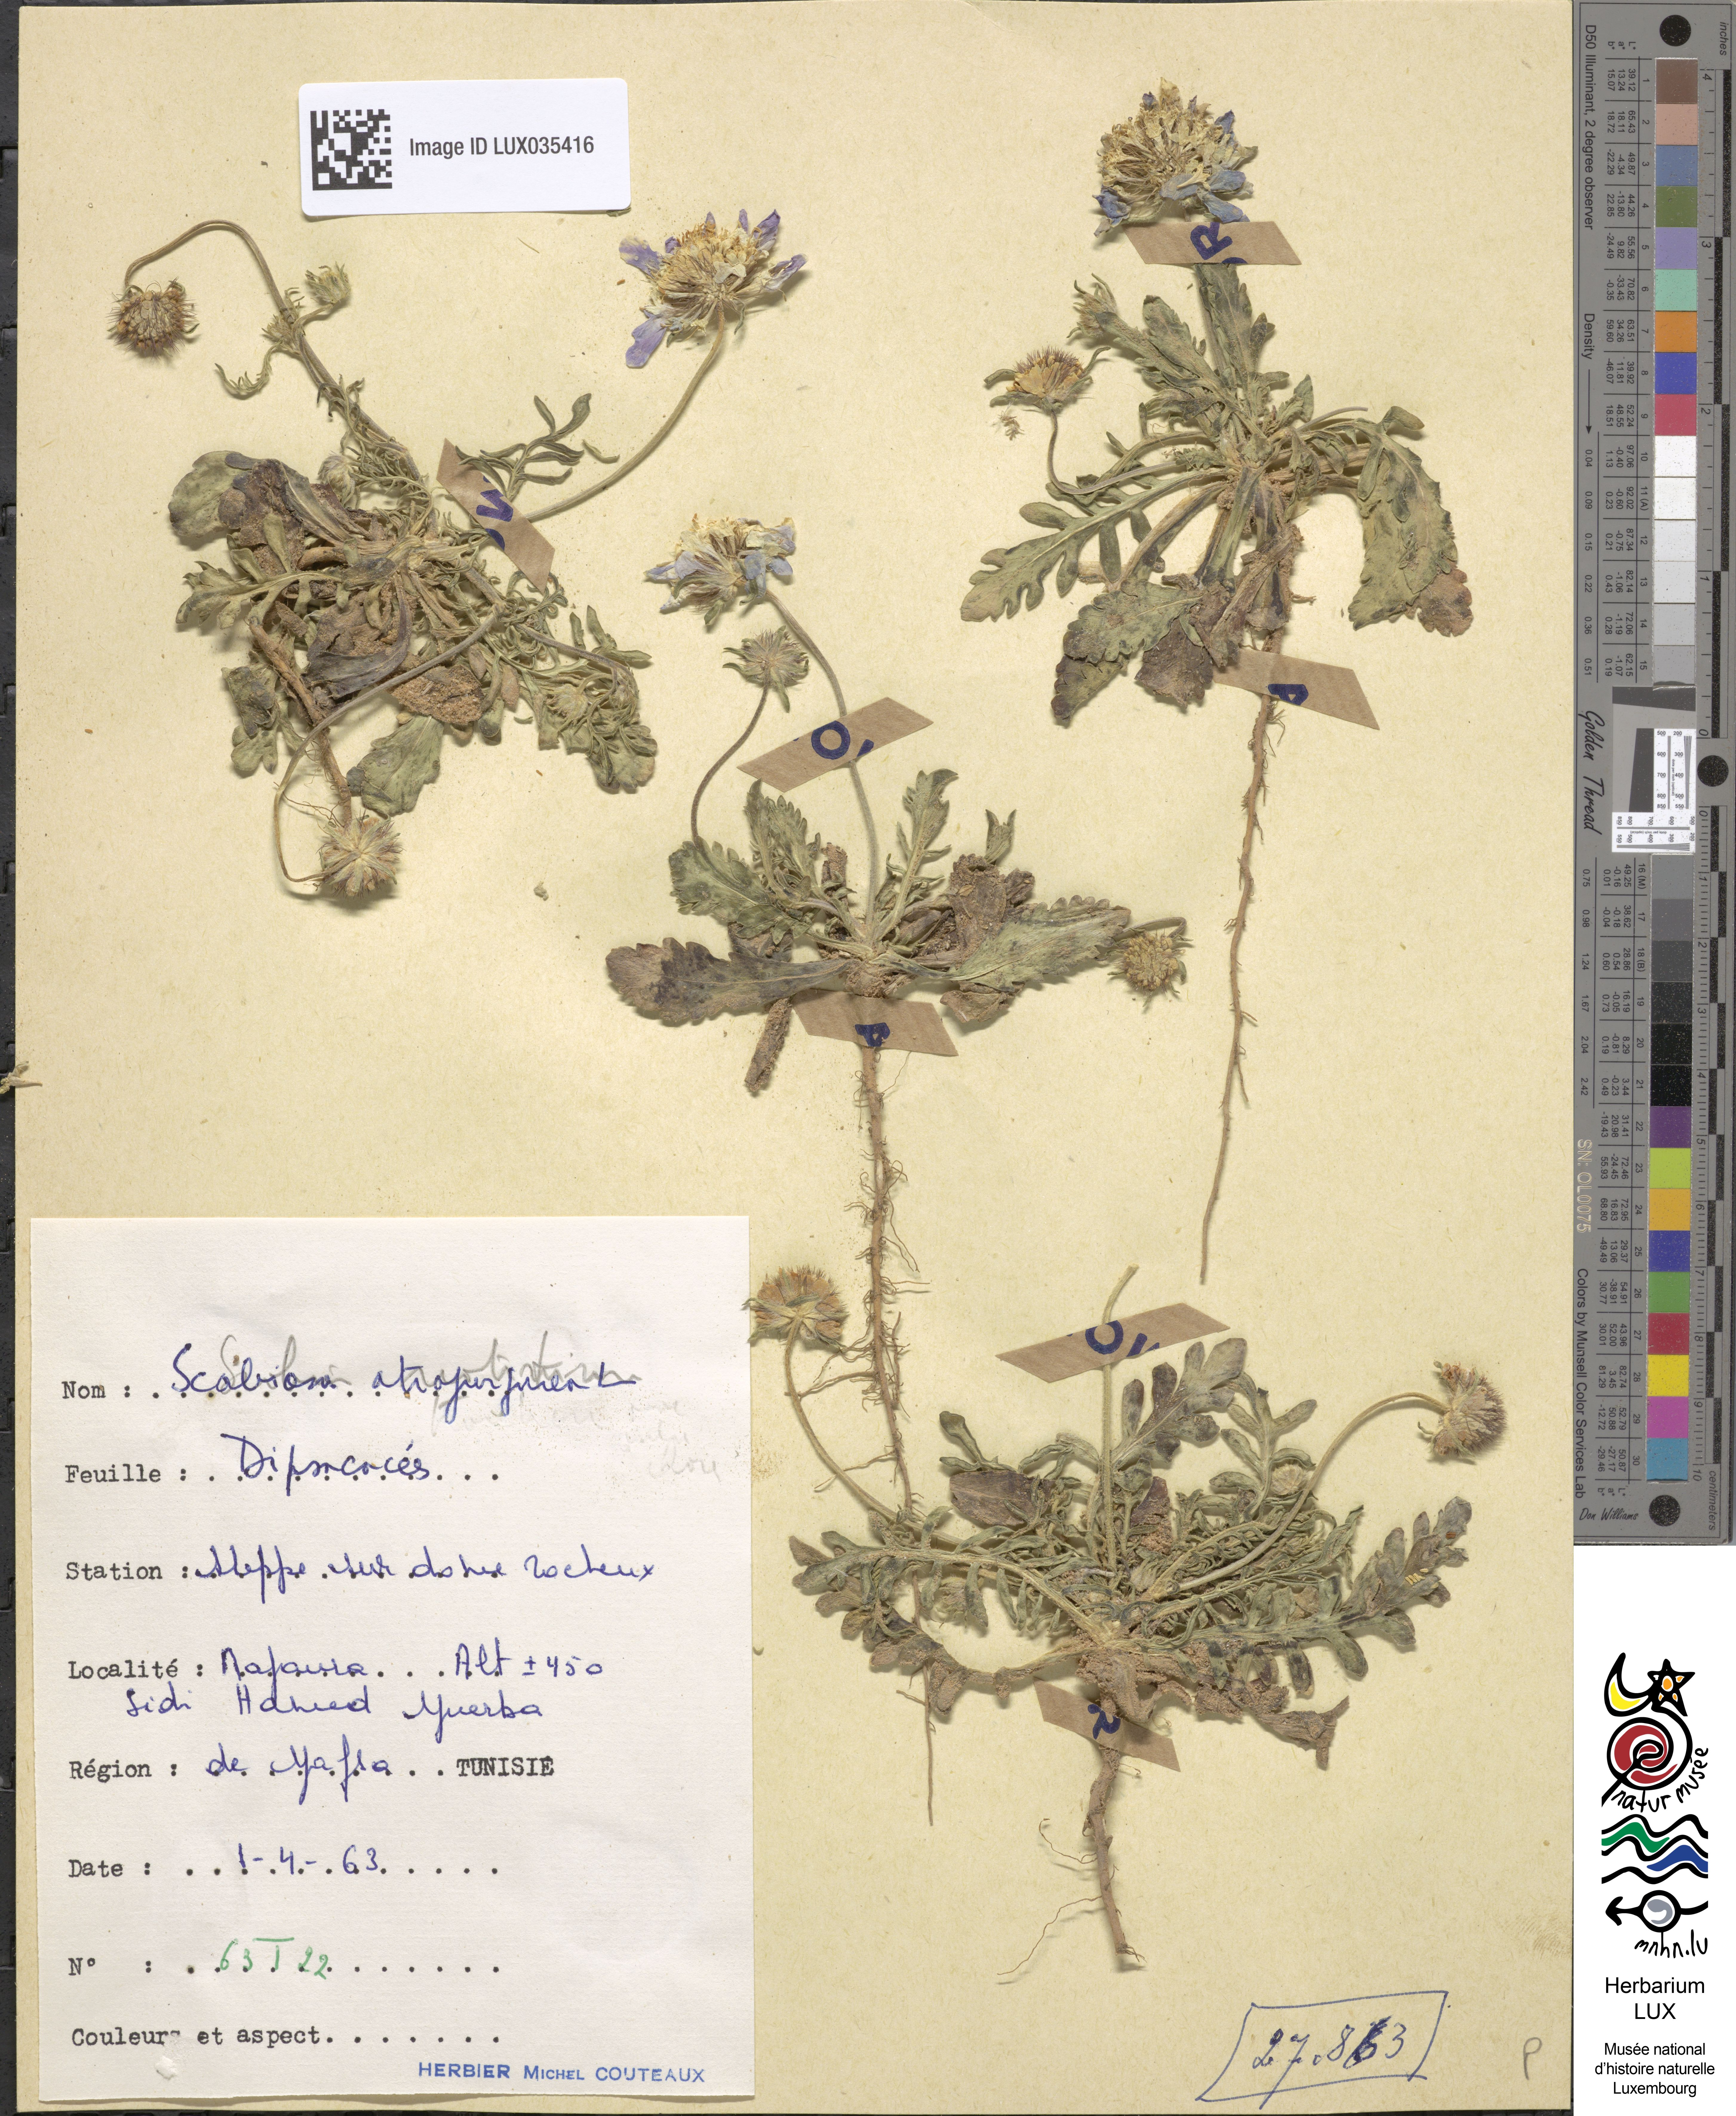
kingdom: Plantae
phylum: Tracheophyta
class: Magnoliopsida
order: Dipsacales
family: Caprifoliaceae
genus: Sixalix
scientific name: Sixalix atropurpurea
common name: Sweet scabious
